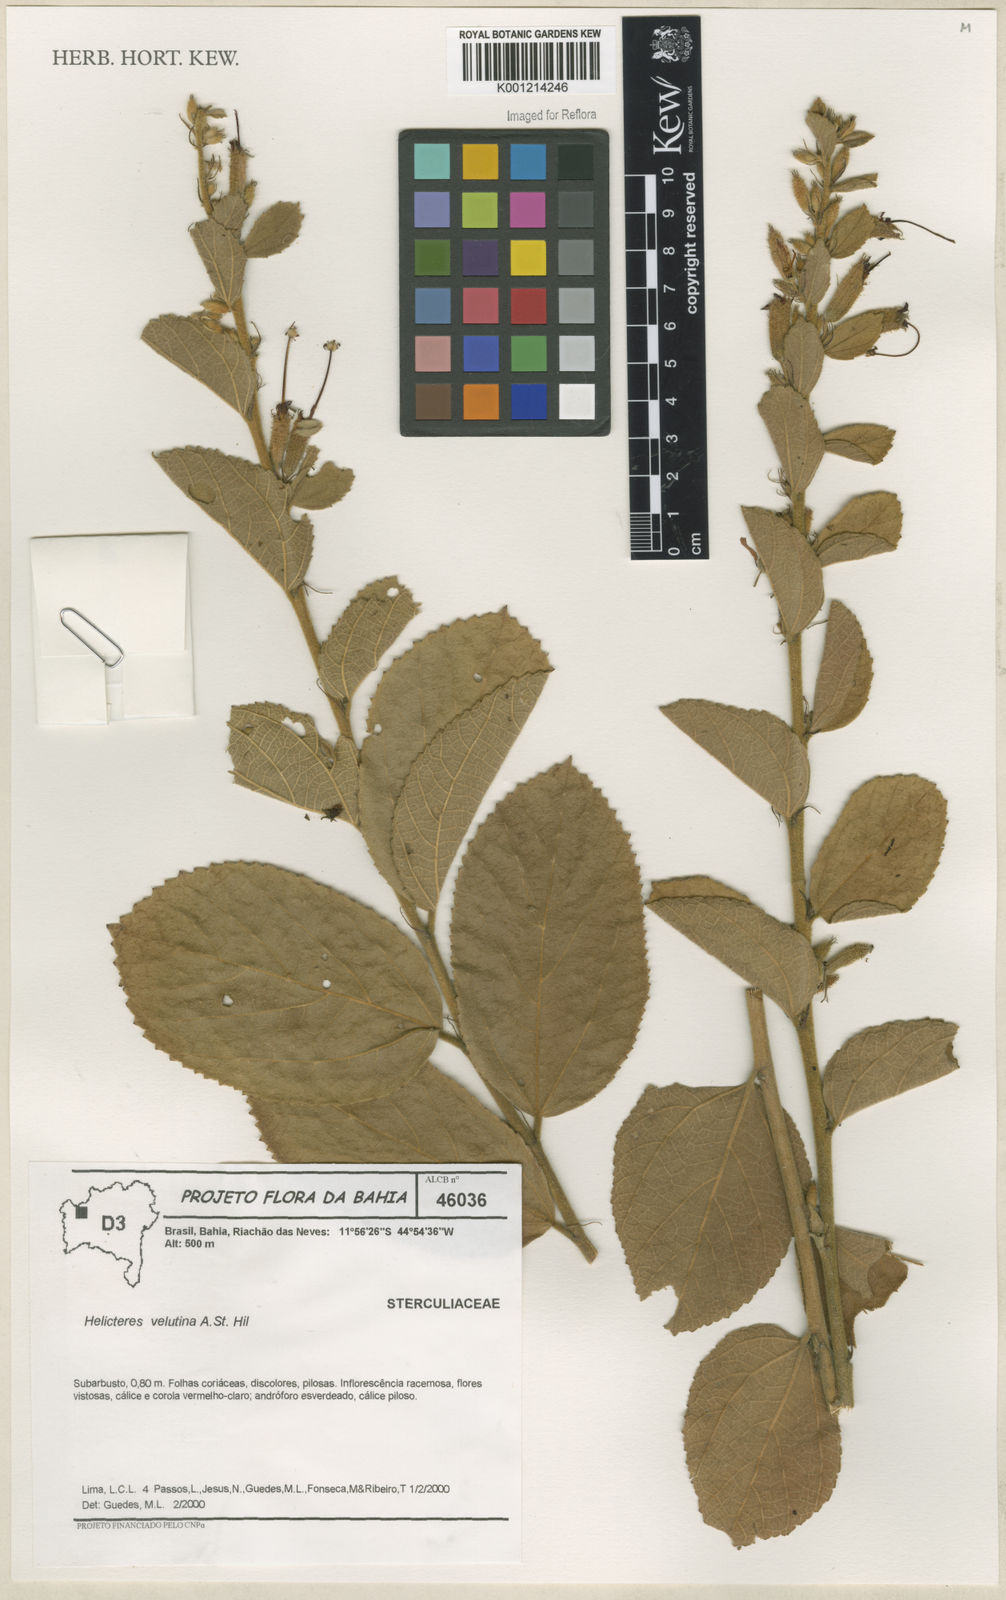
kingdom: Plantae
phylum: Tracheophyta
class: Magnoliopsida
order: Malvales
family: Malvaceae
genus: Helicteres
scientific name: Helicteres velutina
